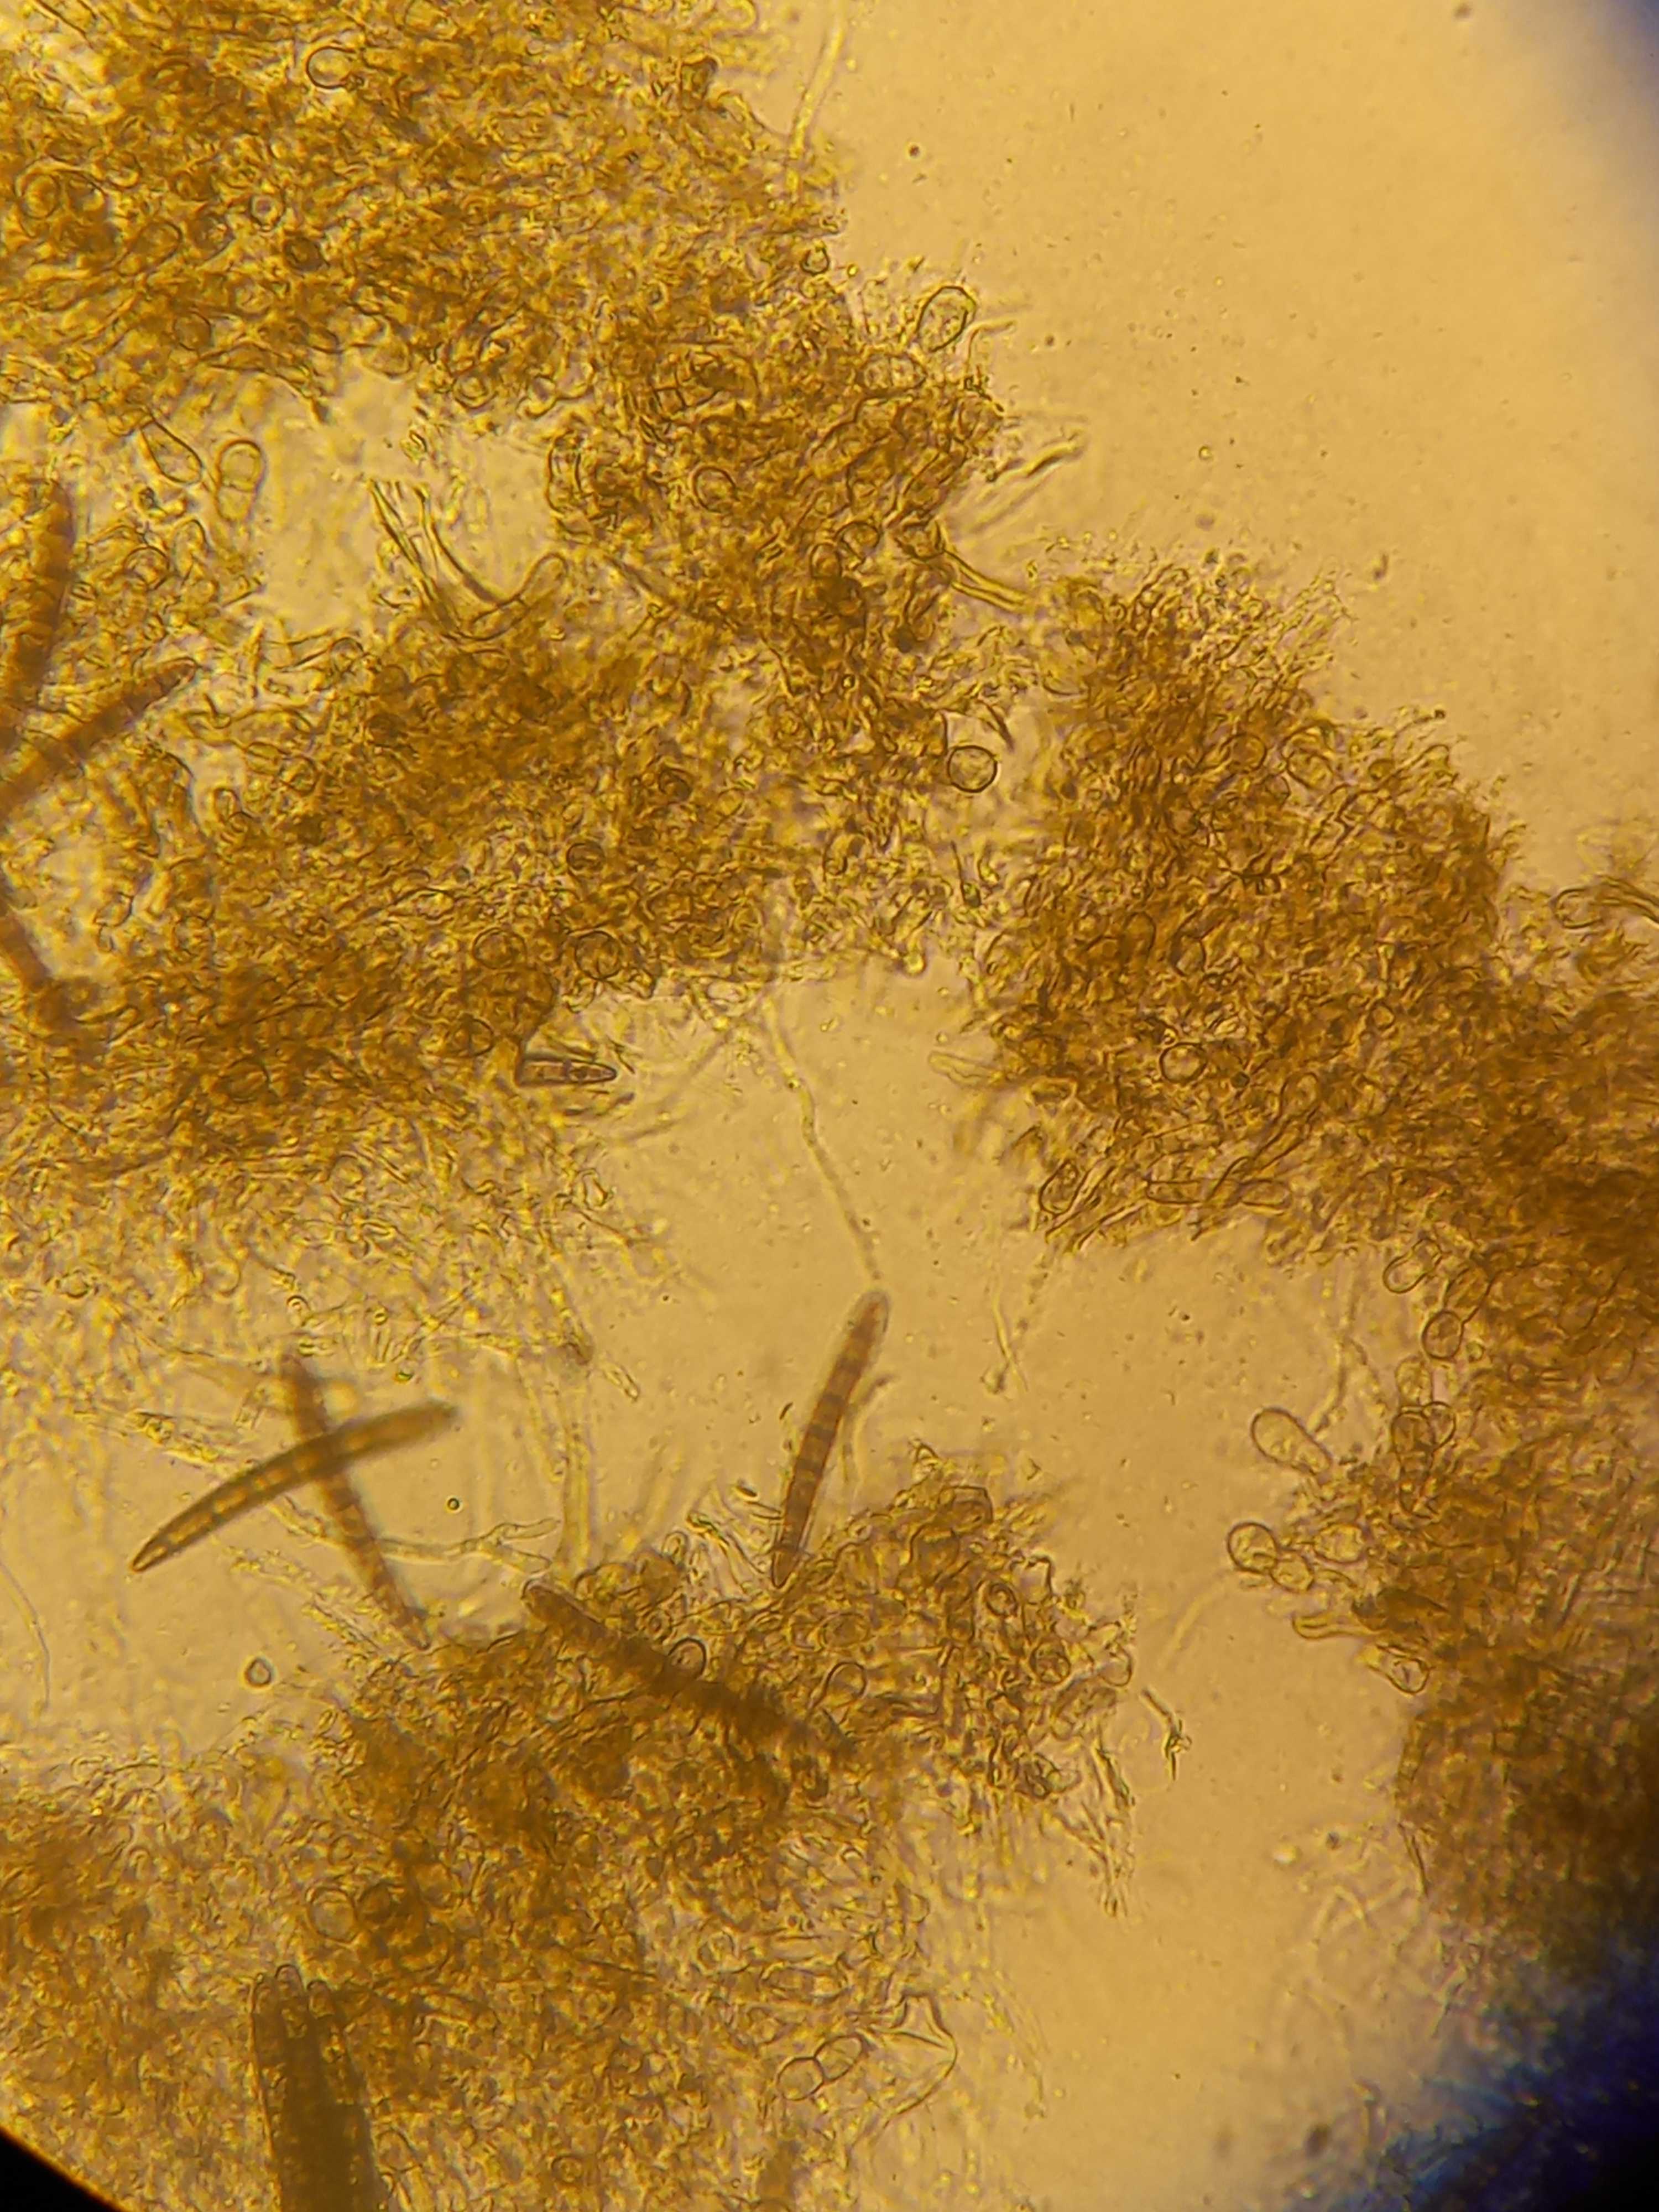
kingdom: Fungi
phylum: Ascomycota
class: Geoglossomycetes
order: Geoglossales
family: Geoglossaceae
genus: Geoglossum
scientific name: Geoglossum cookeianum
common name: bred jordtunge
